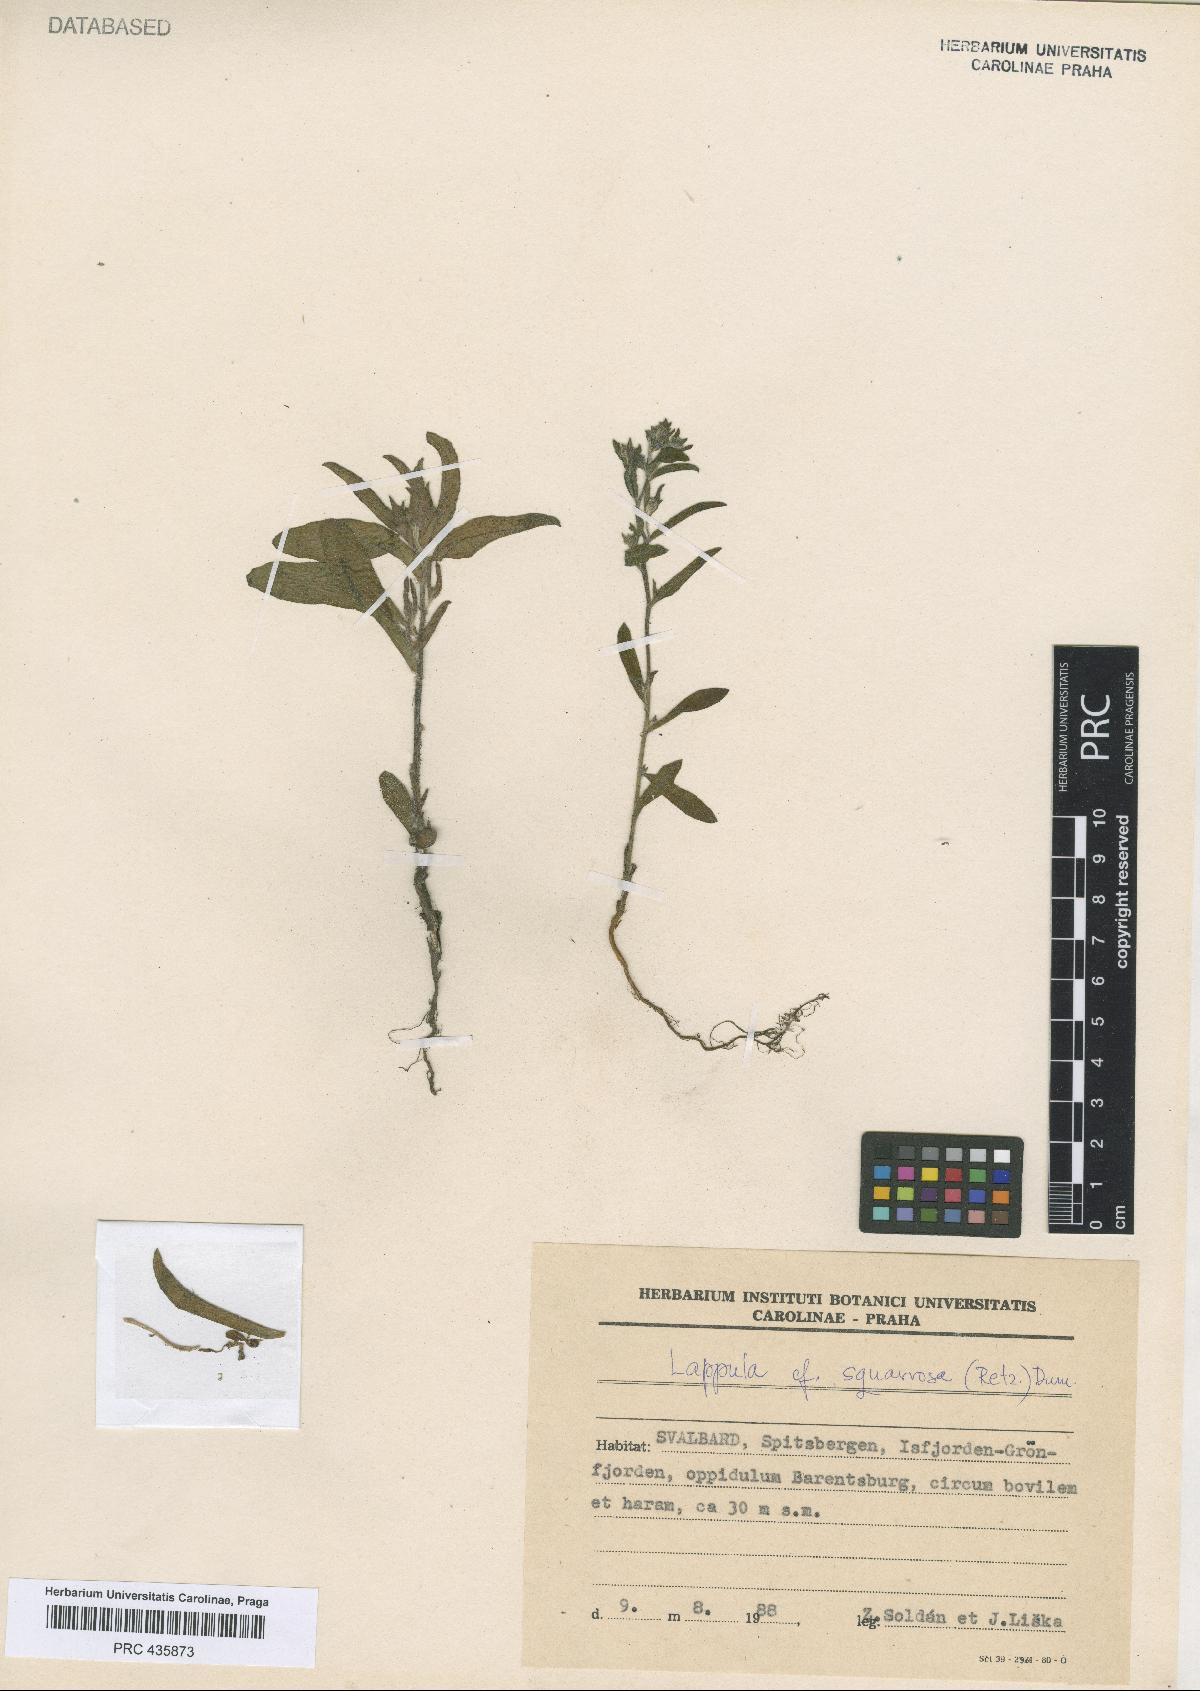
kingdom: Plantae
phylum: Tracheophyta
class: Magnoliopsida
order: Boraginales
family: Boraginaceae
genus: Lappula
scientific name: Lappula squarrosa
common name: European stickseed
